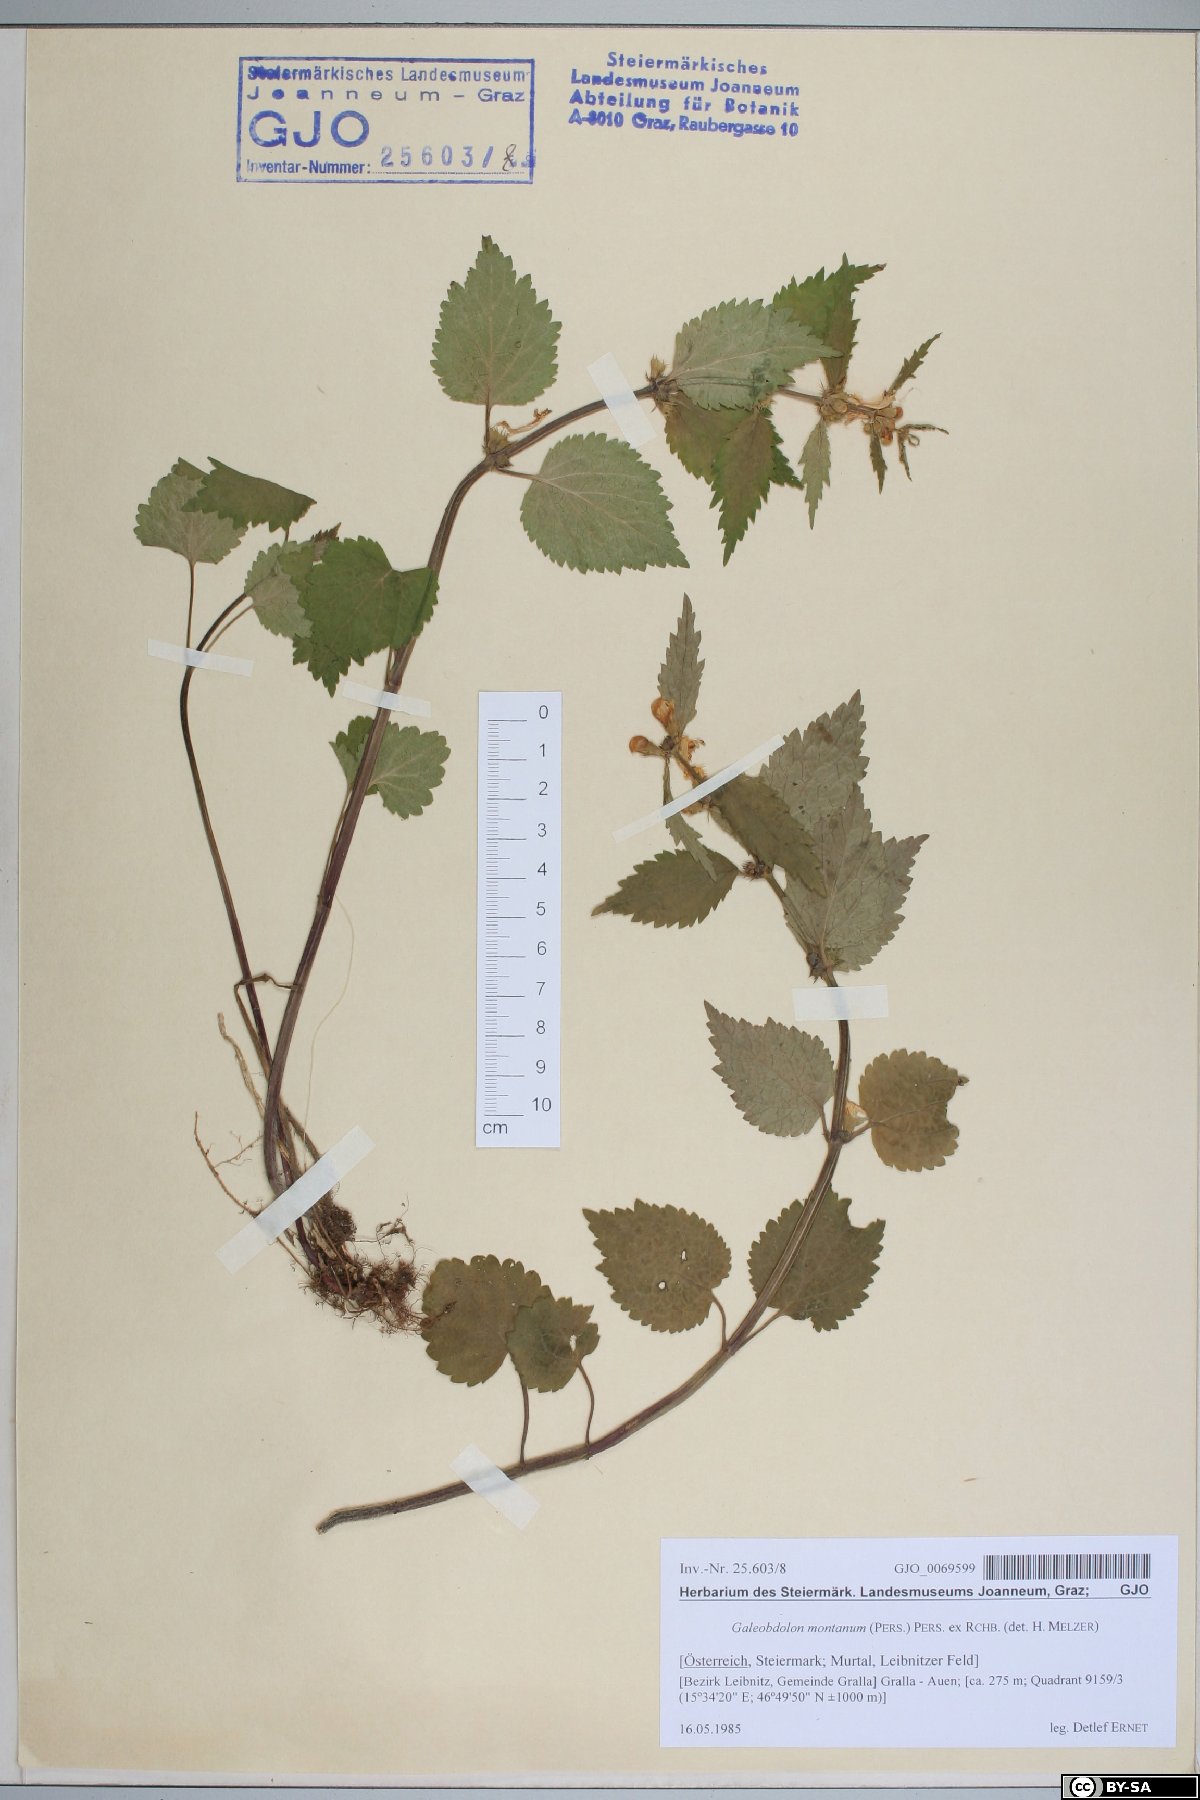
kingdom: Plantae
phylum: Tracheophyta
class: Magnoliopsida
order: Lamiales
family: Lamiaceae
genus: Lamium
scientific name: Lamium galeobdolon
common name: Yellow archangel
